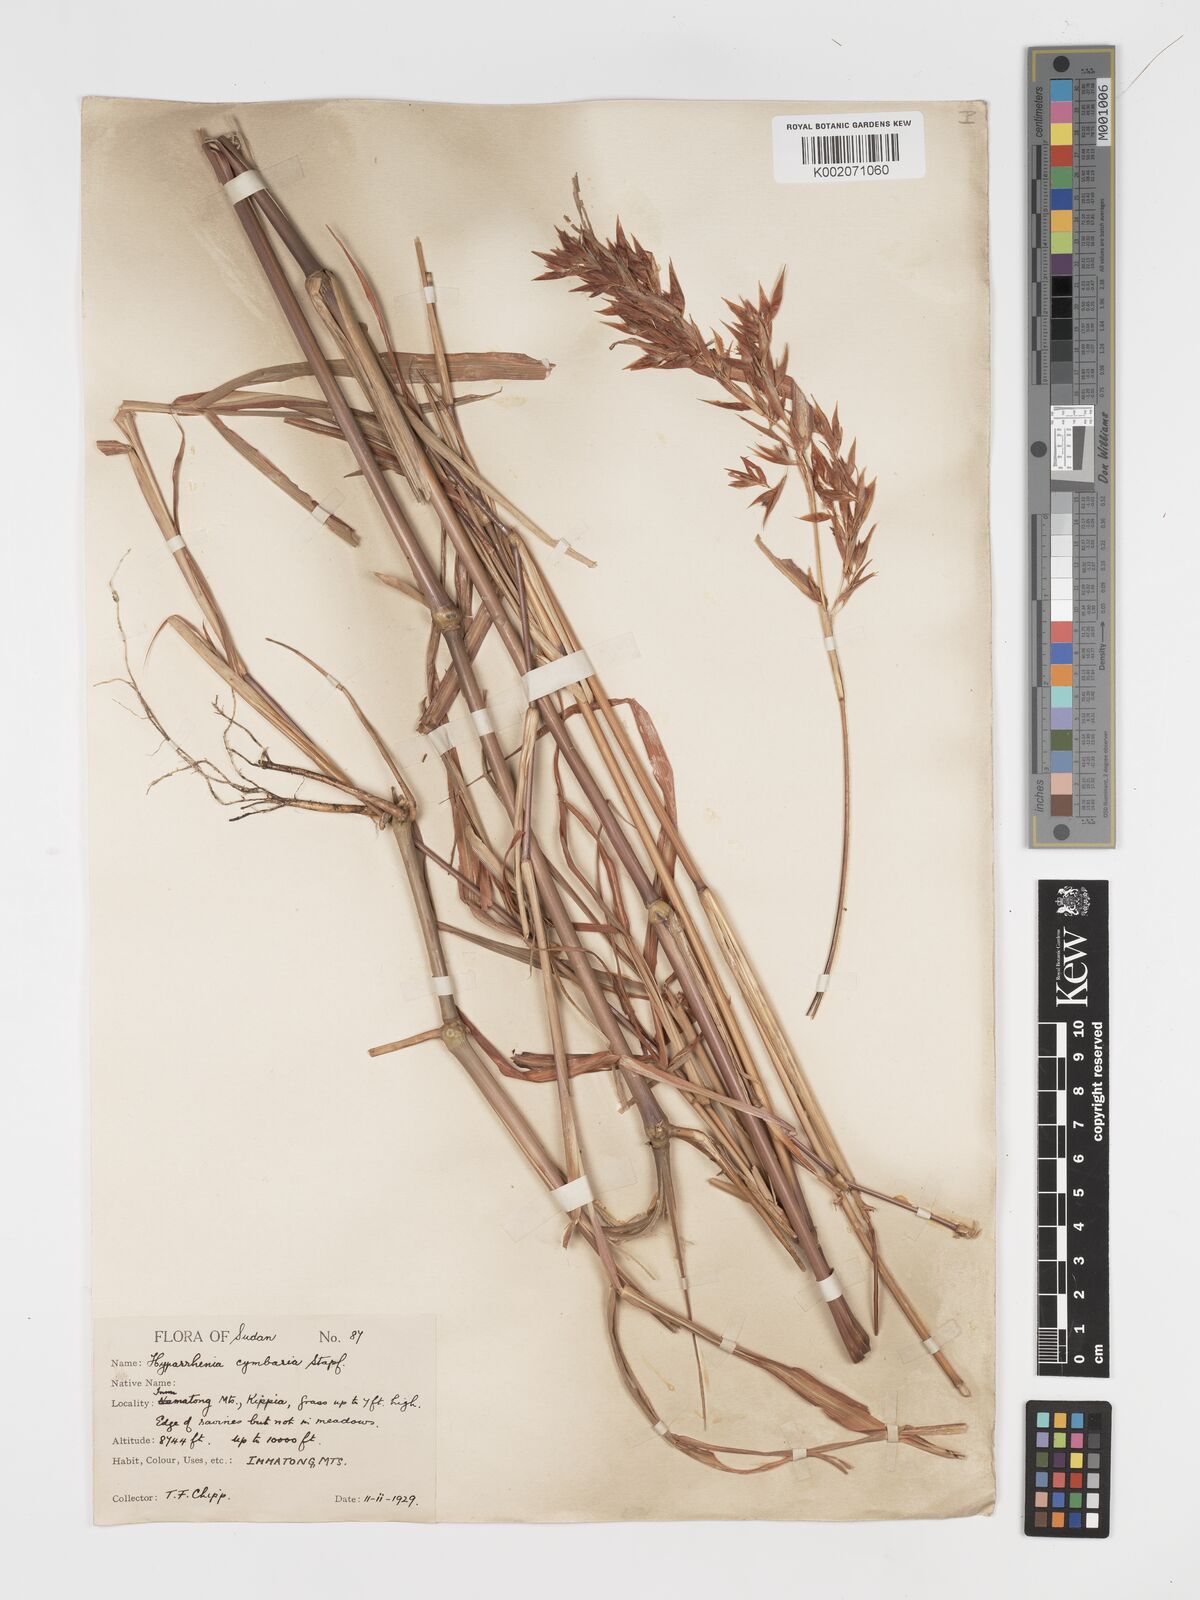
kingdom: Plantae
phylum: Tracheophyta
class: Liliopsida
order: Poales
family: Poaceae
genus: Hyparrhenia
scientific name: Hyparrhenia cymbaria
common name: Boat thatching grass
